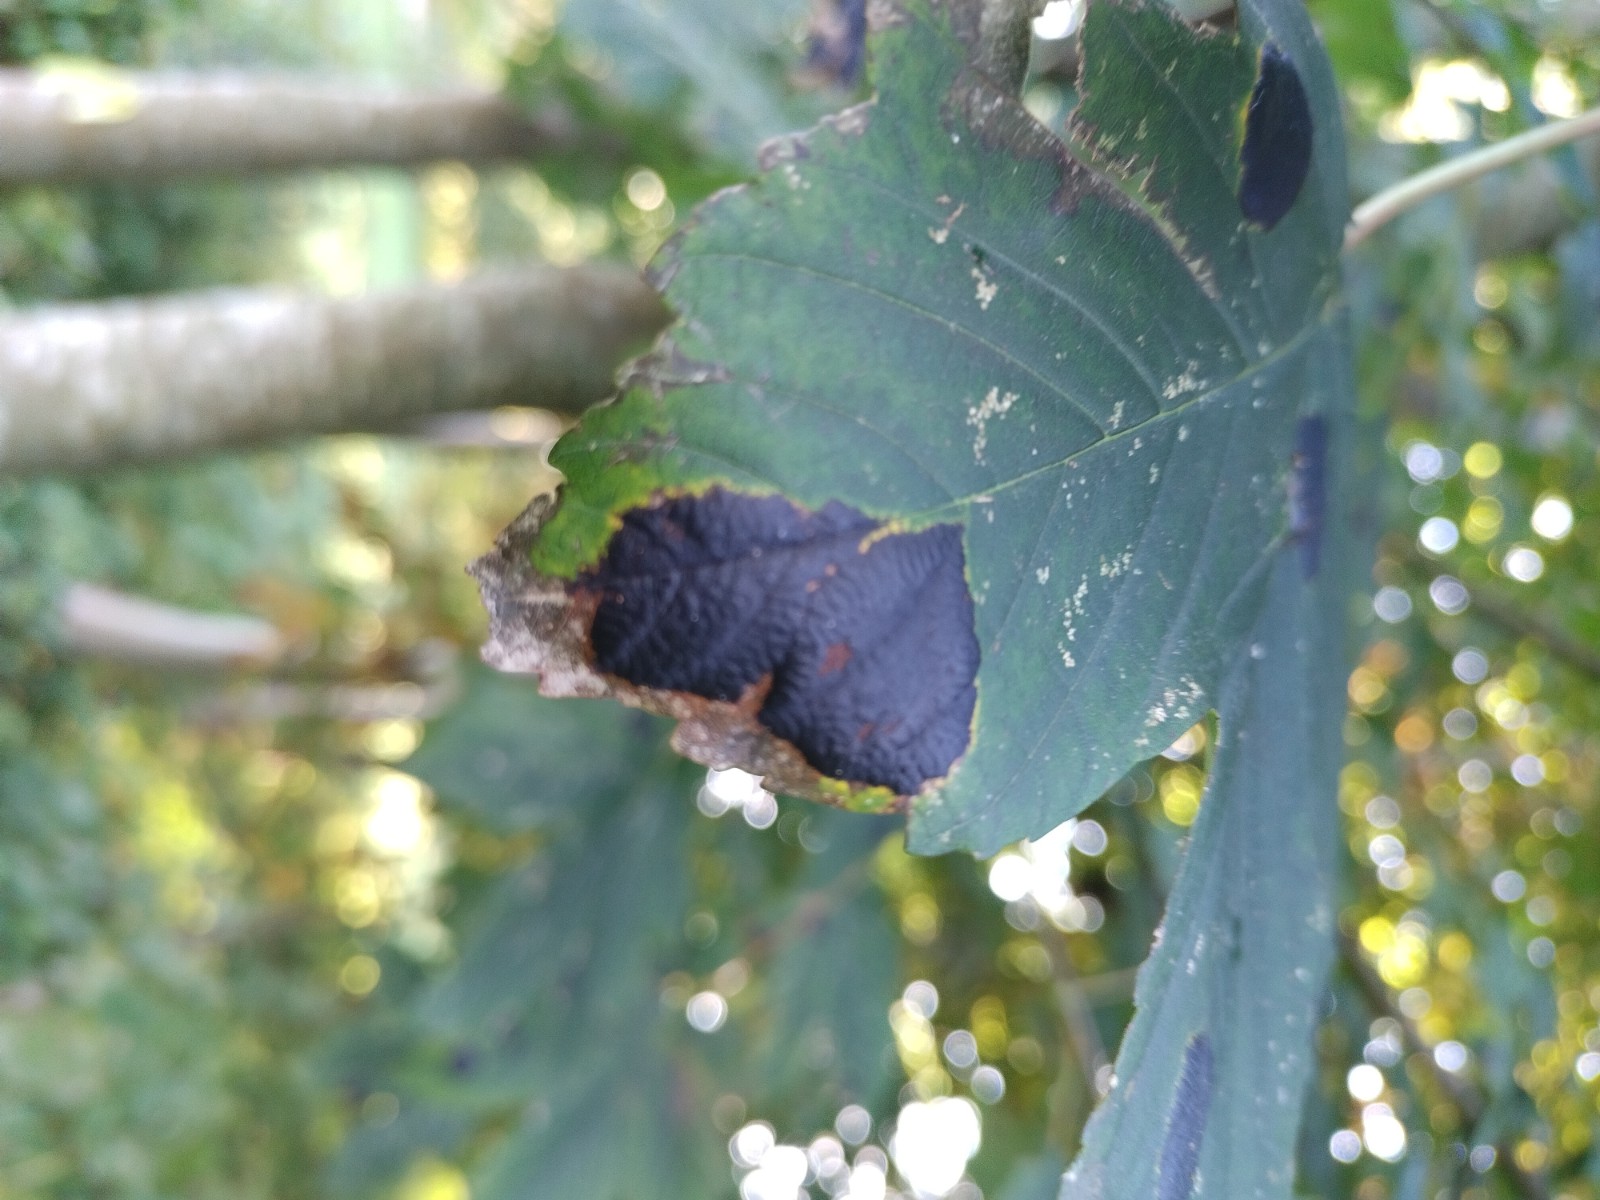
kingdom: Fungi
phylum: Ascomycota
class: Leotiomycetes
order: Rhytismatales
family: Rhytismataceae
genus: Rhytisma
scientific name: Rhytisma acerinum
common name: ahorn-rynkeplet
